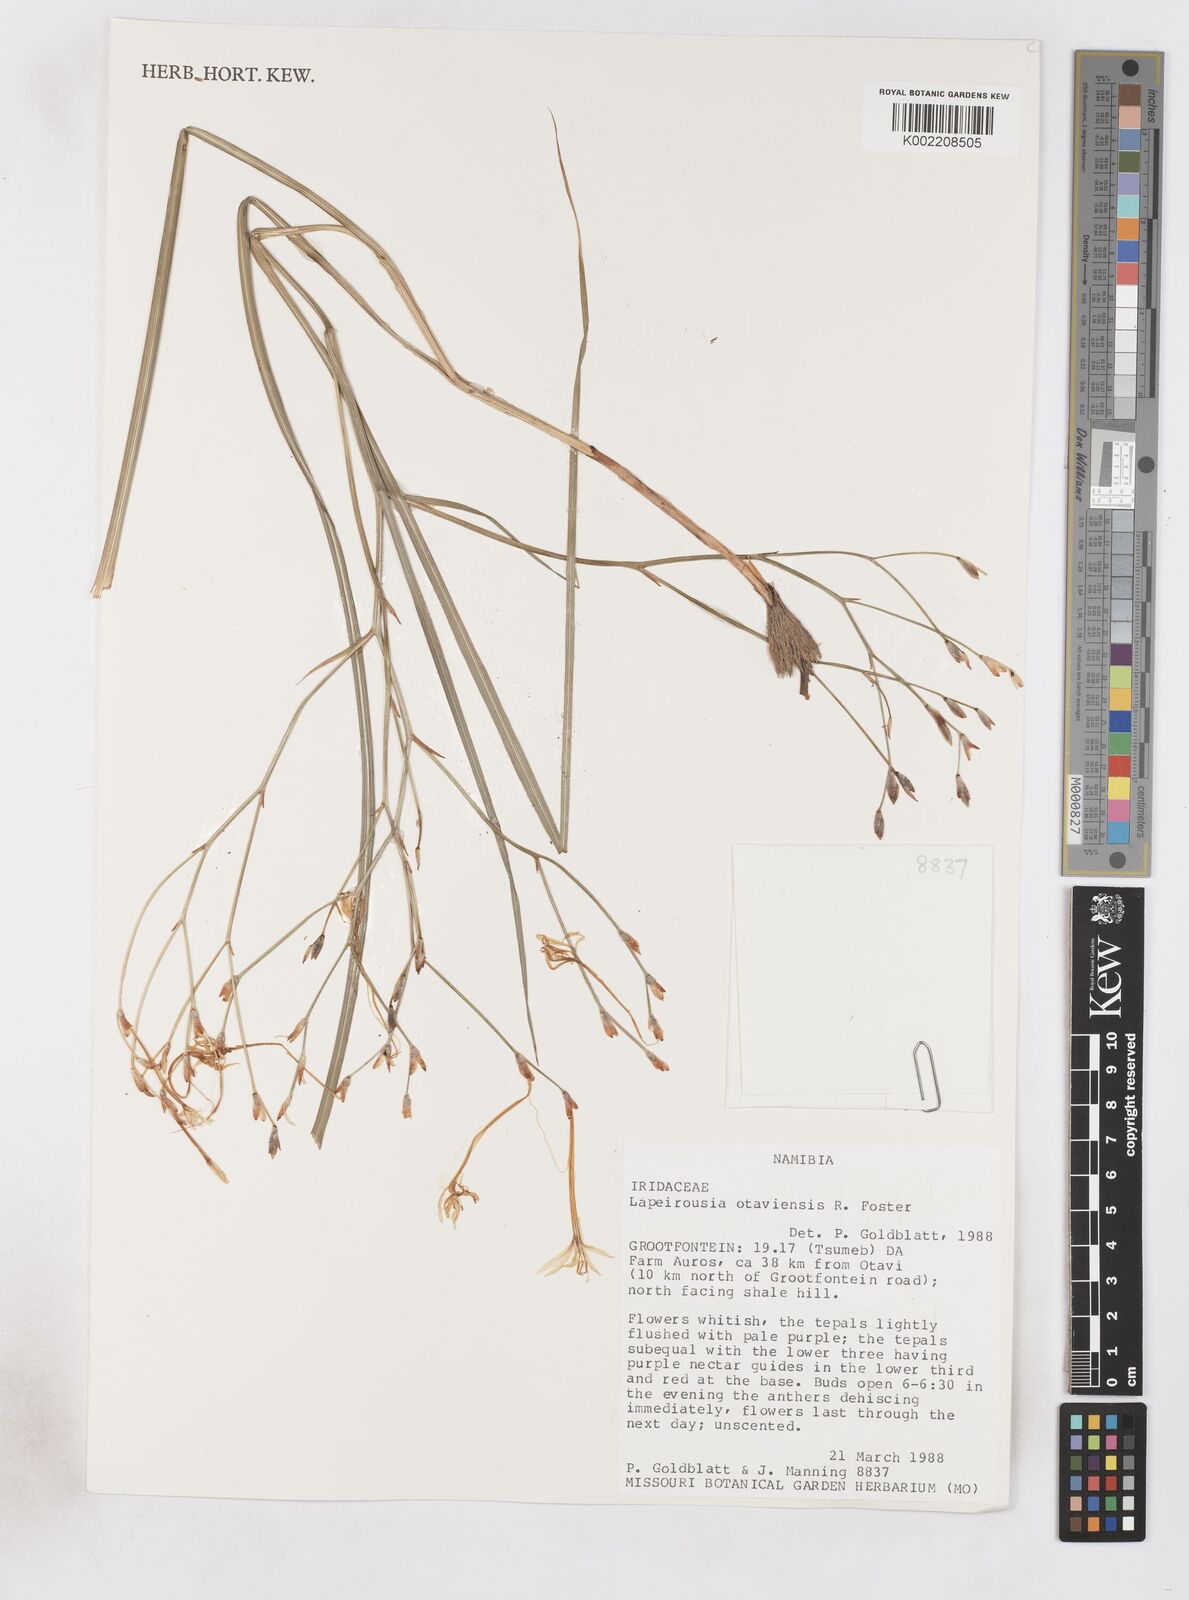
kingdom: Plantae
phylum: Tracheophyta
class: Liliopsida
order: Asparagales
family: Iridaceae
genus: Afrosolen
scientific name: Afrosolen otaviensis
